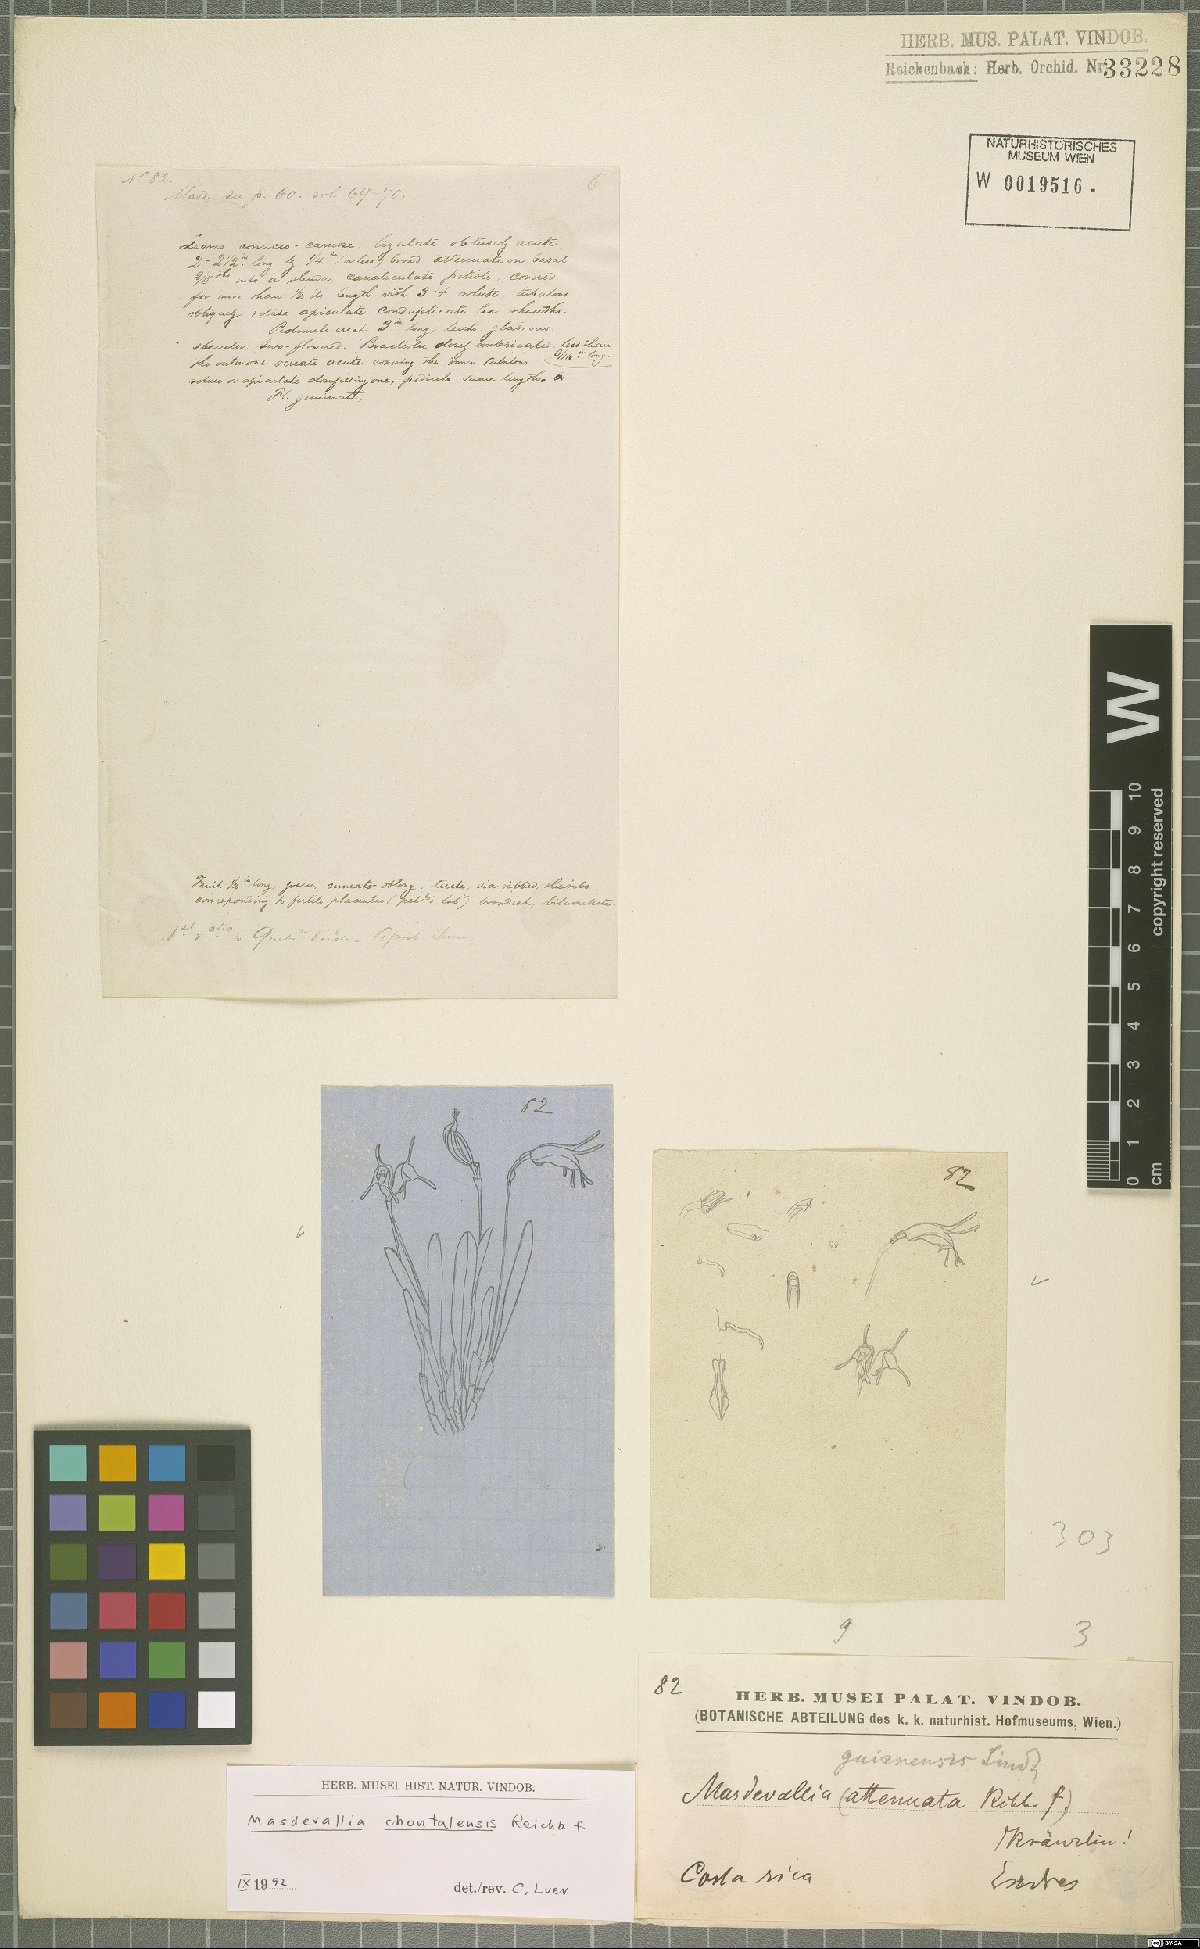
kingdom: Plantae
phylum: Tracheophyta
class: Liliopsida
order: Asparagales
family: Orchidaceae
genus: Masdevallia
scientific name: Masdevallia chontalensis
